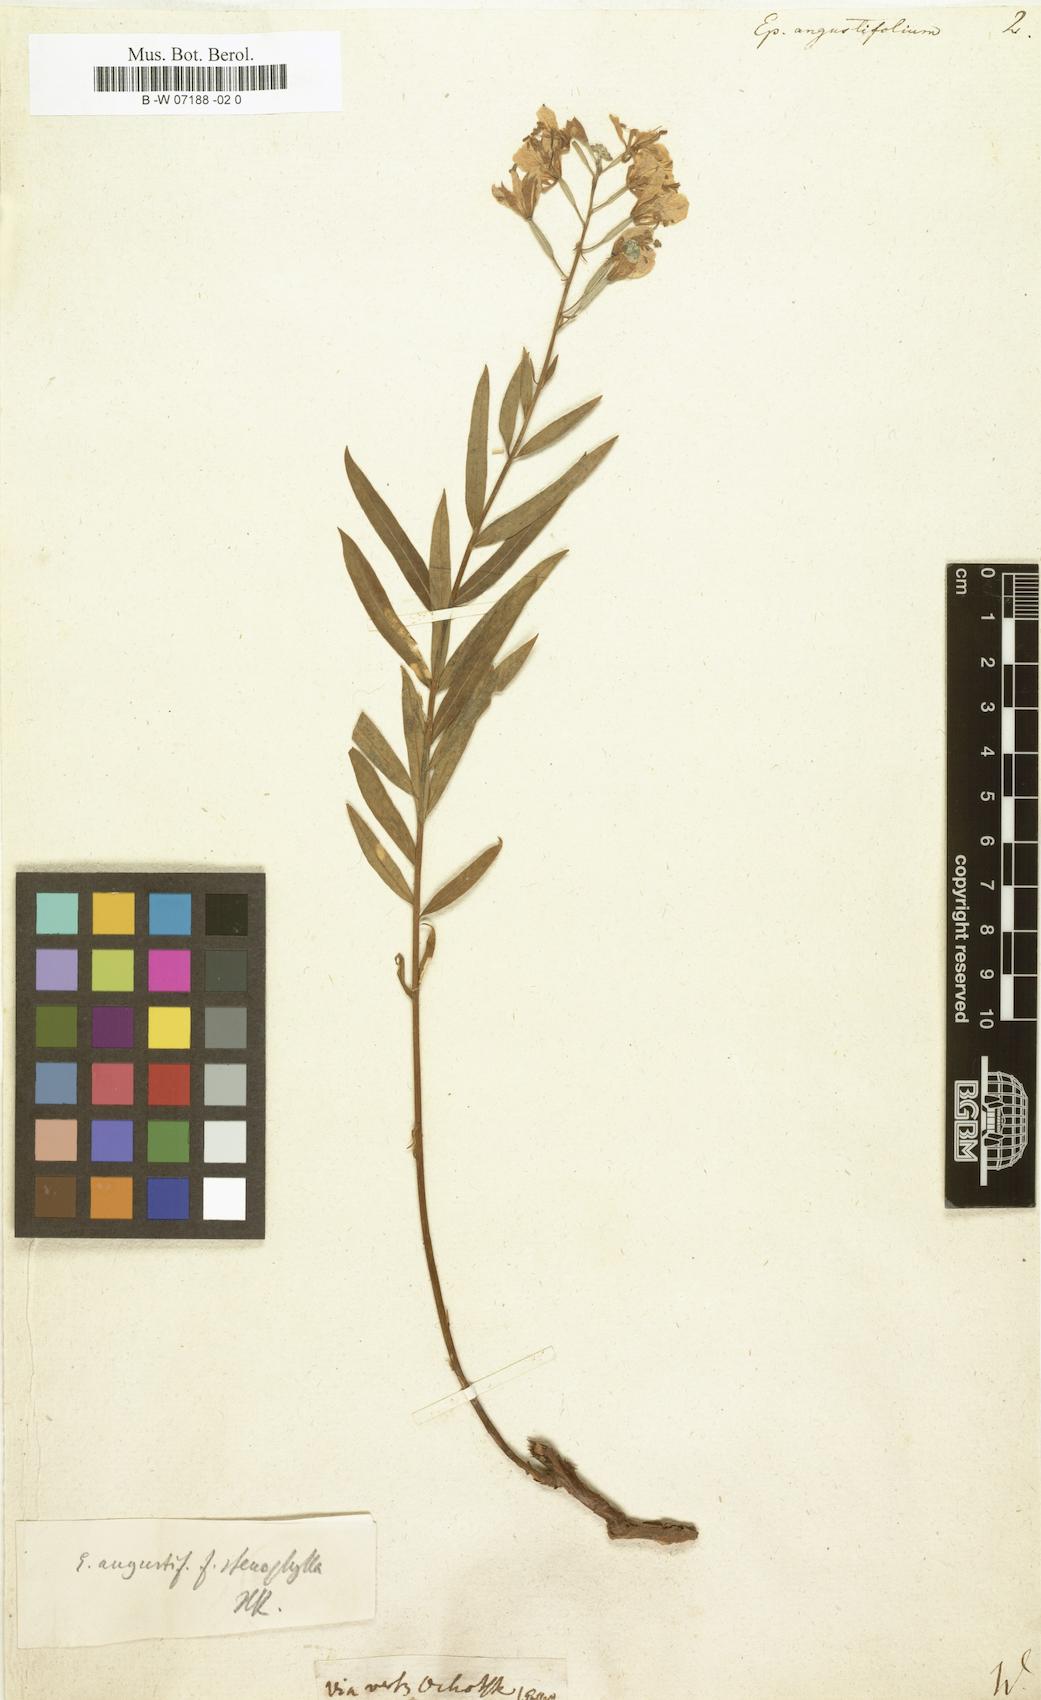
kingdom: Plantae
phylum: Tracheophyta
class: Magnoliopsida
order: Myrtales
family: Onagraceae
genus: Chamaenerion
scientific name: Chamaenerion angustifolium
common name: Fireweed
